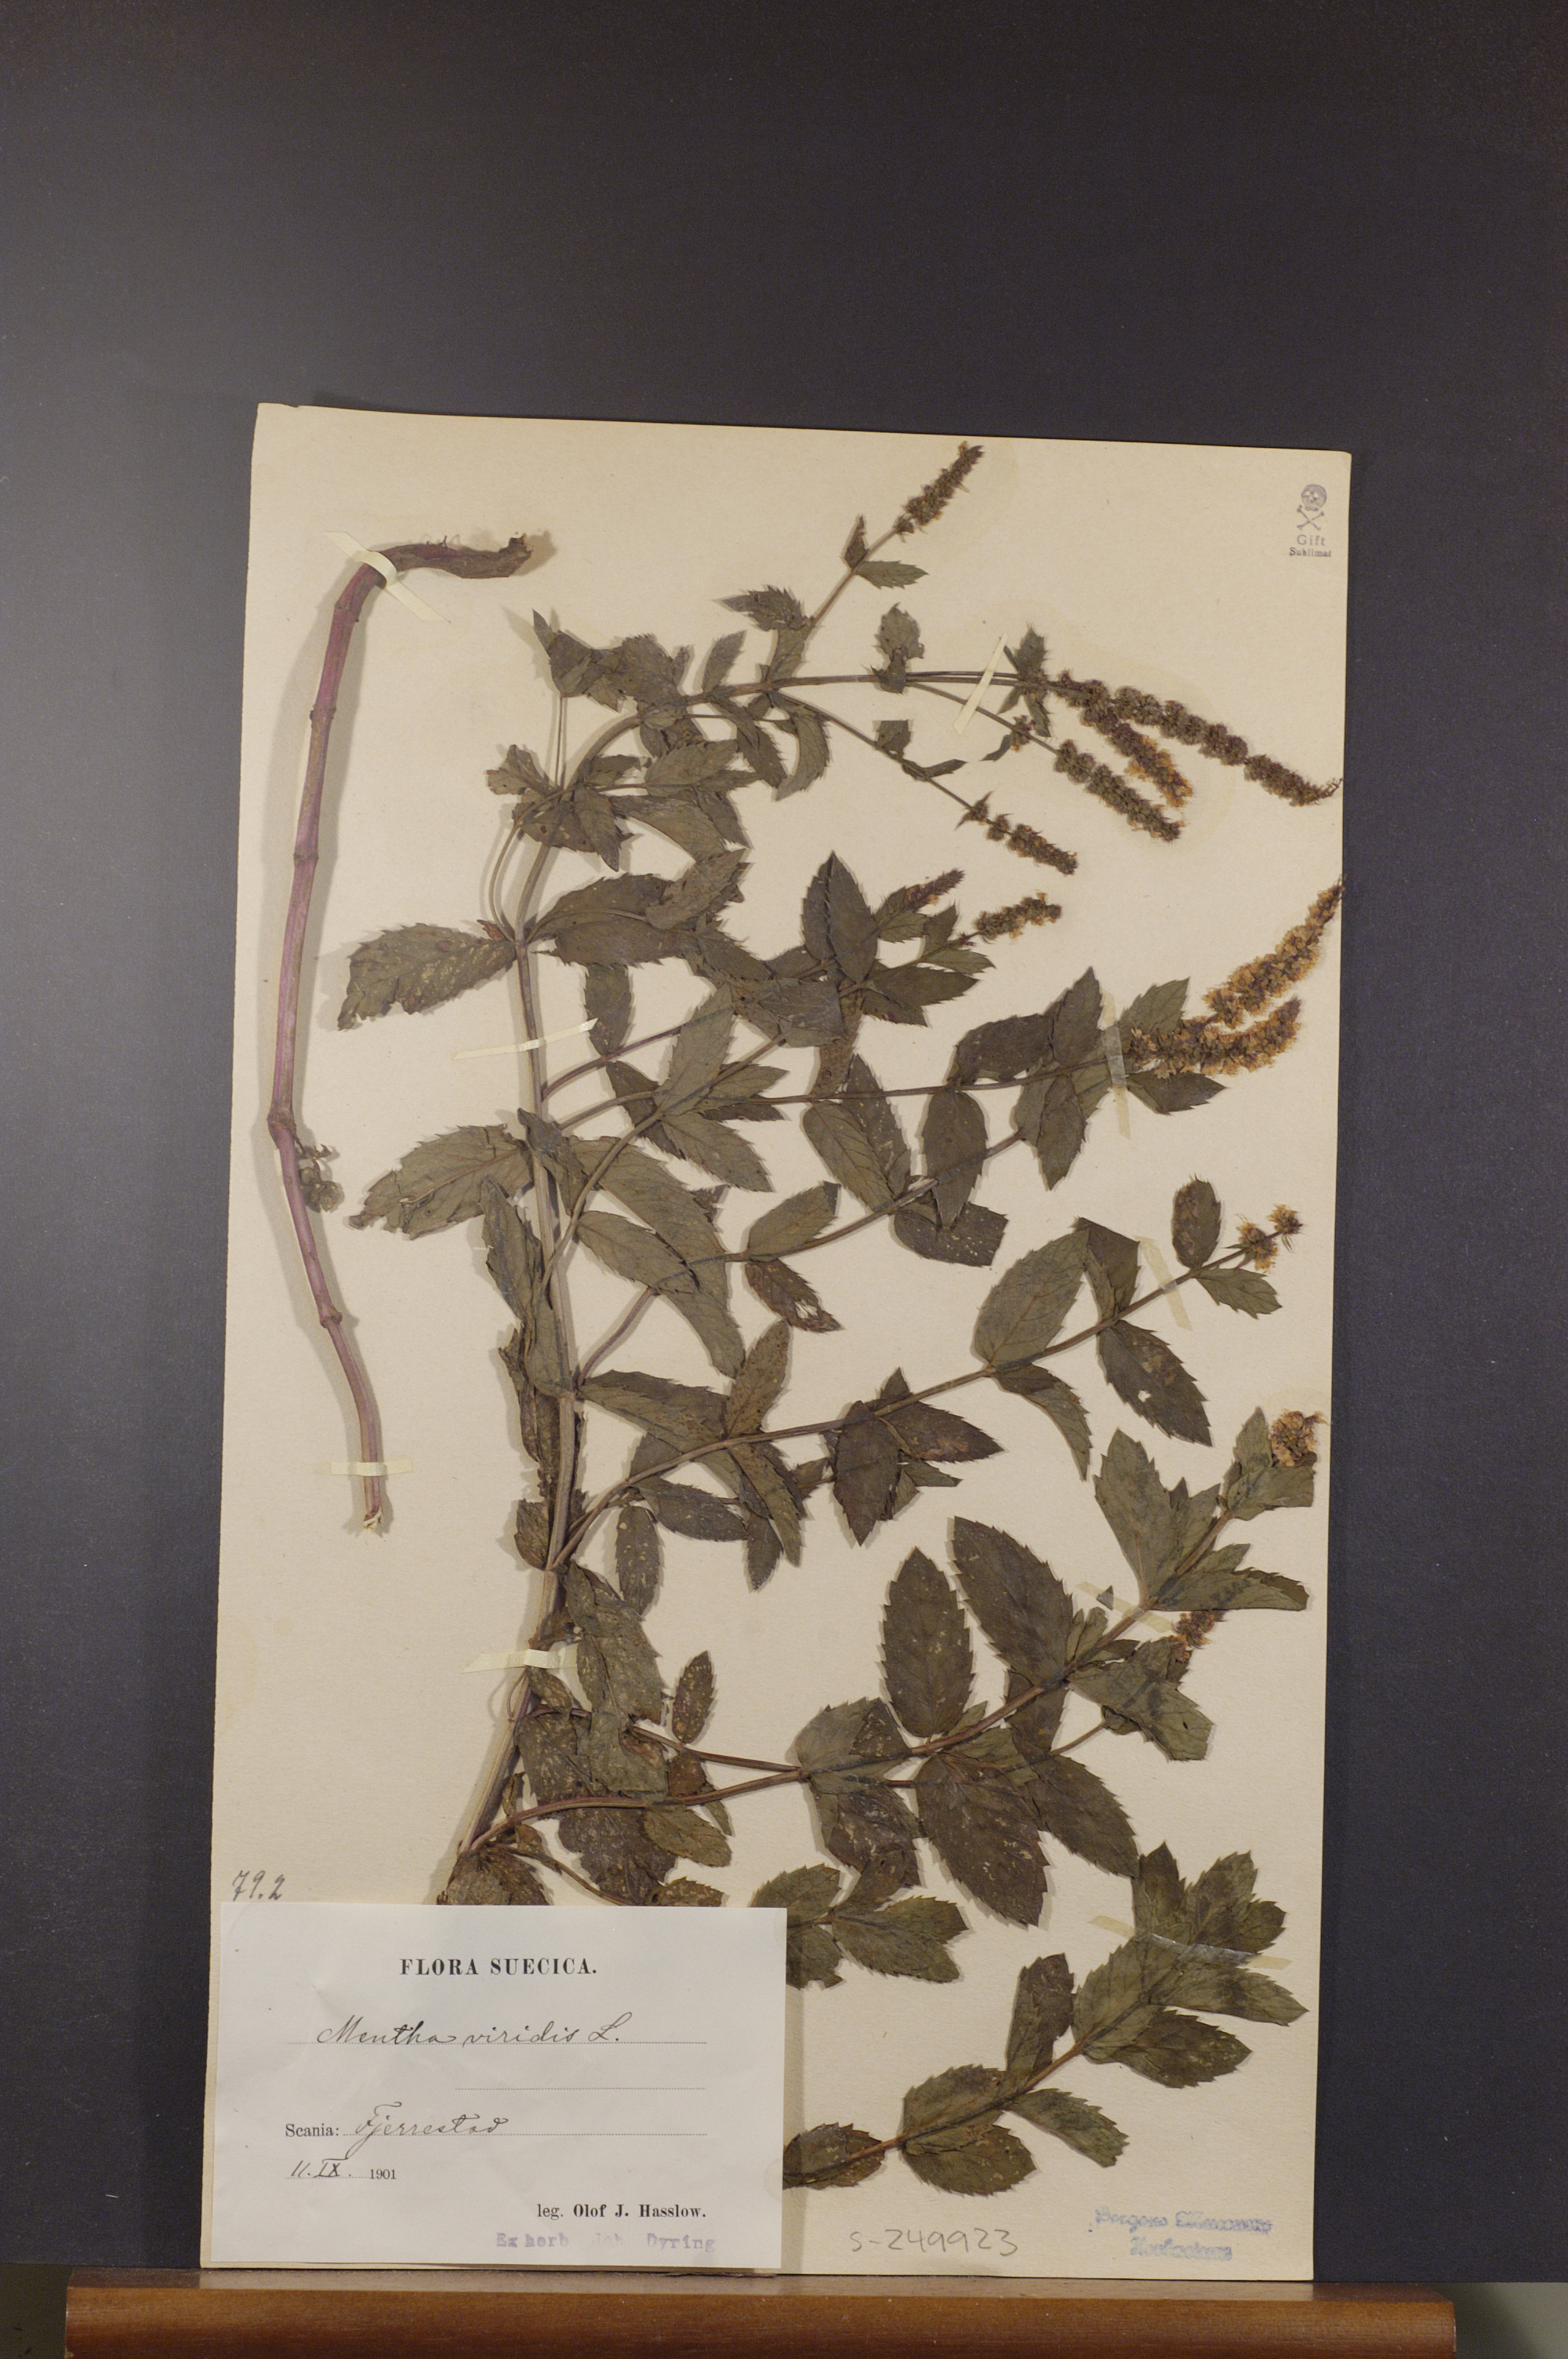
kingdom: Plantae
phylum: Tracheophyta
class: Magnoliopsida
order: Lamiales
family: Lamiaceae
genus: Mentha
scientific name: Mentha spicata
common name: Spearmint
